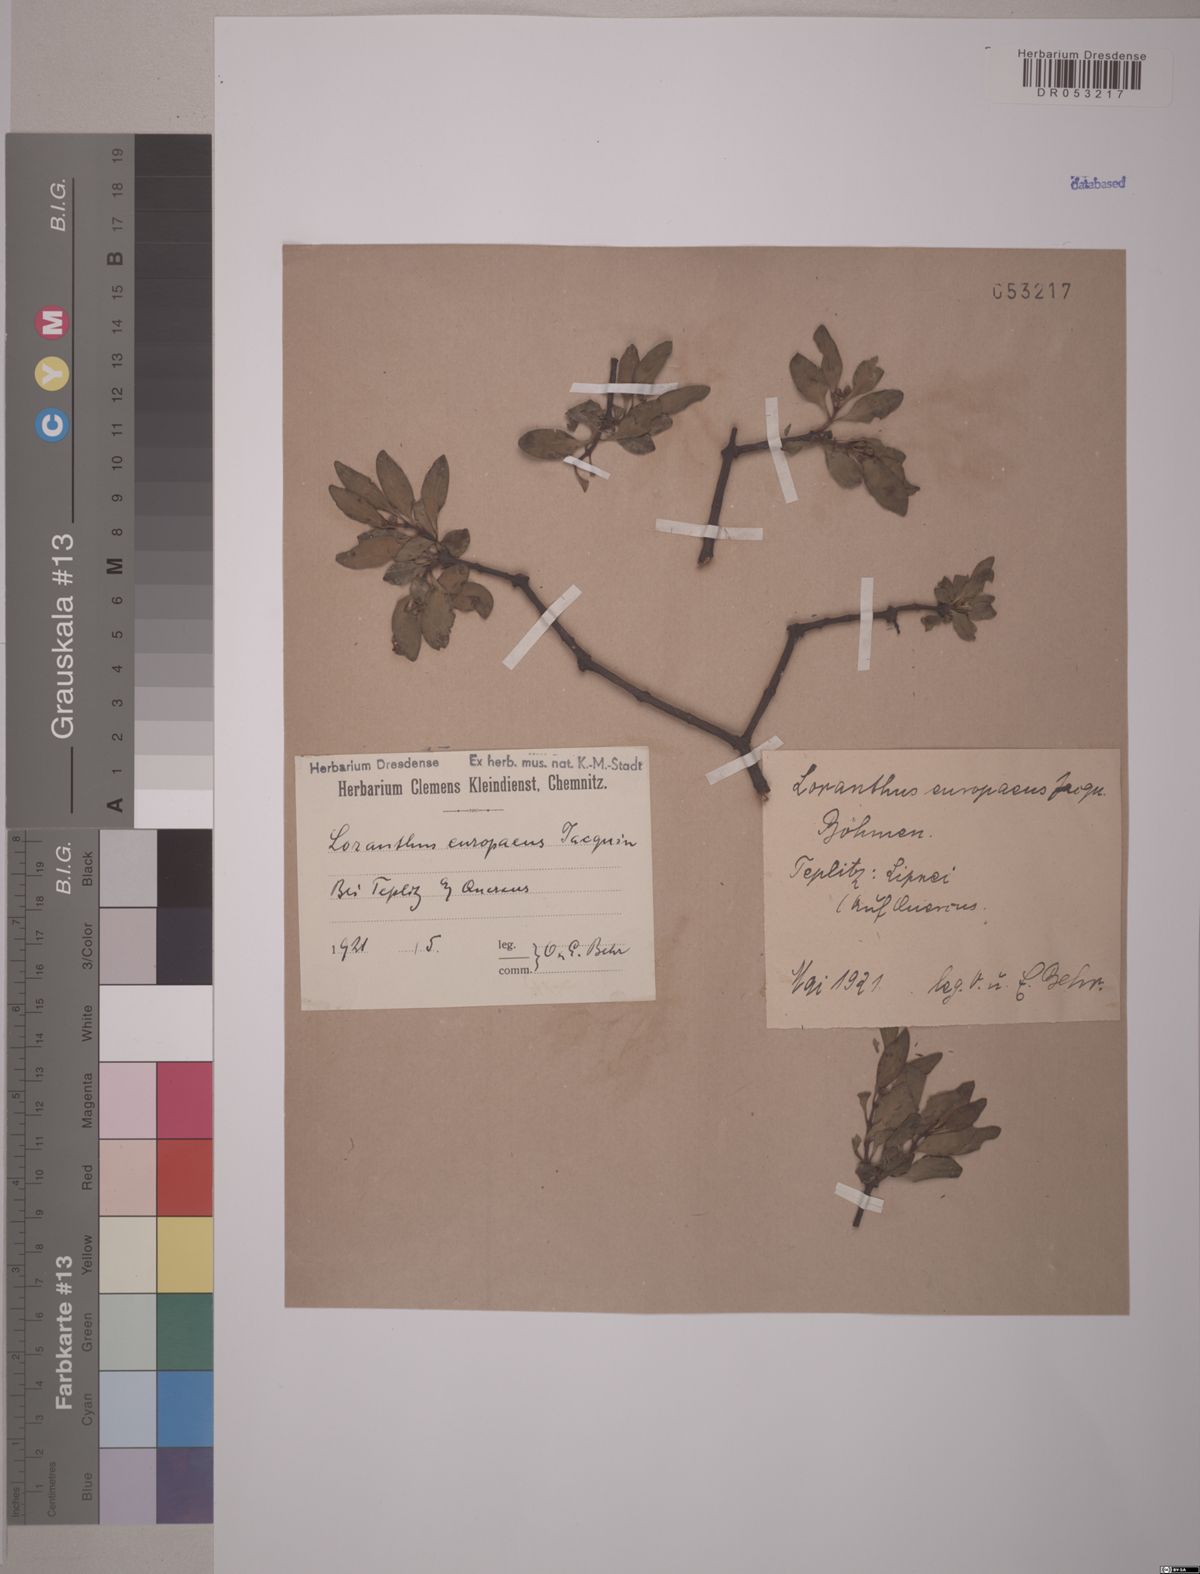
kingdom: Plantae
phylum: Tracheophyta
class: Magnoliopsida
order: Santalales
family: Loranthaceae
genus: Loranthus
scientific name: Loranthus europaeus
